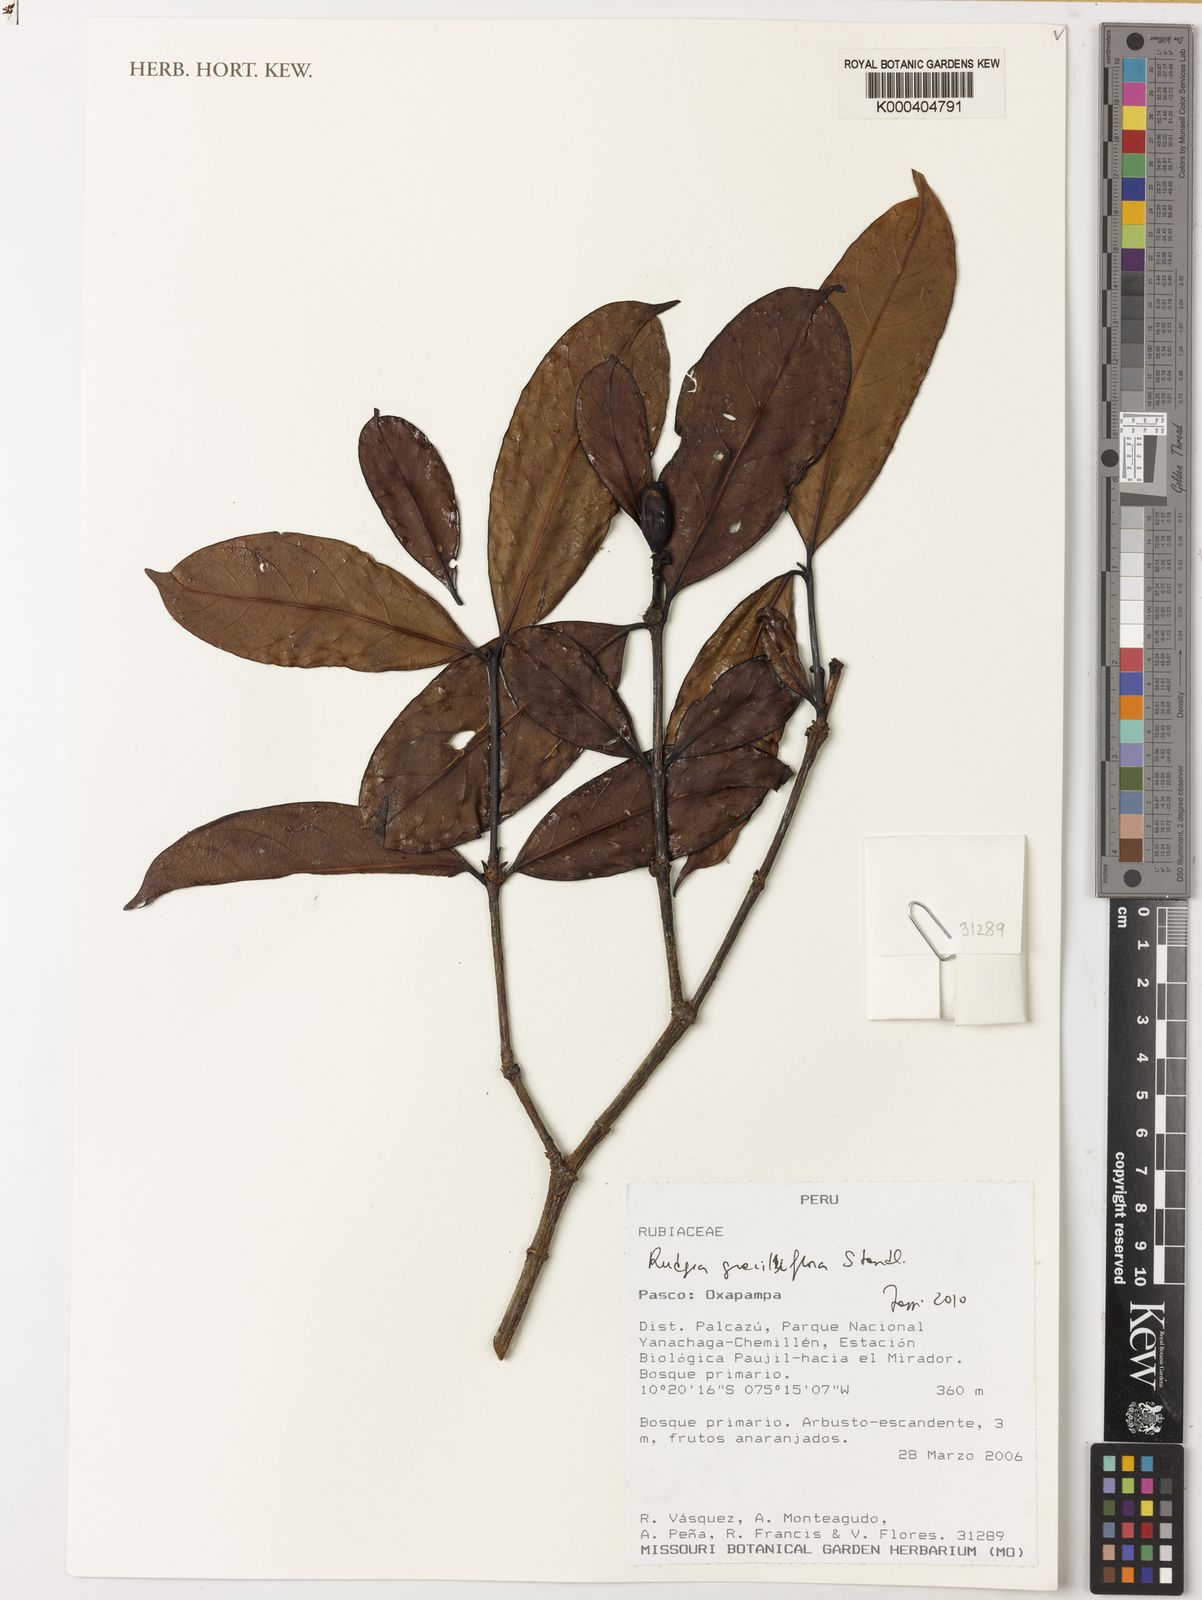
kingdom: Plantae
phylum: Tracheophyta
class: Magnoliopsida
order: Gentianales
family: Rubiaceae
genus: Rudgea
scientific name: Rudgea graciliflora
